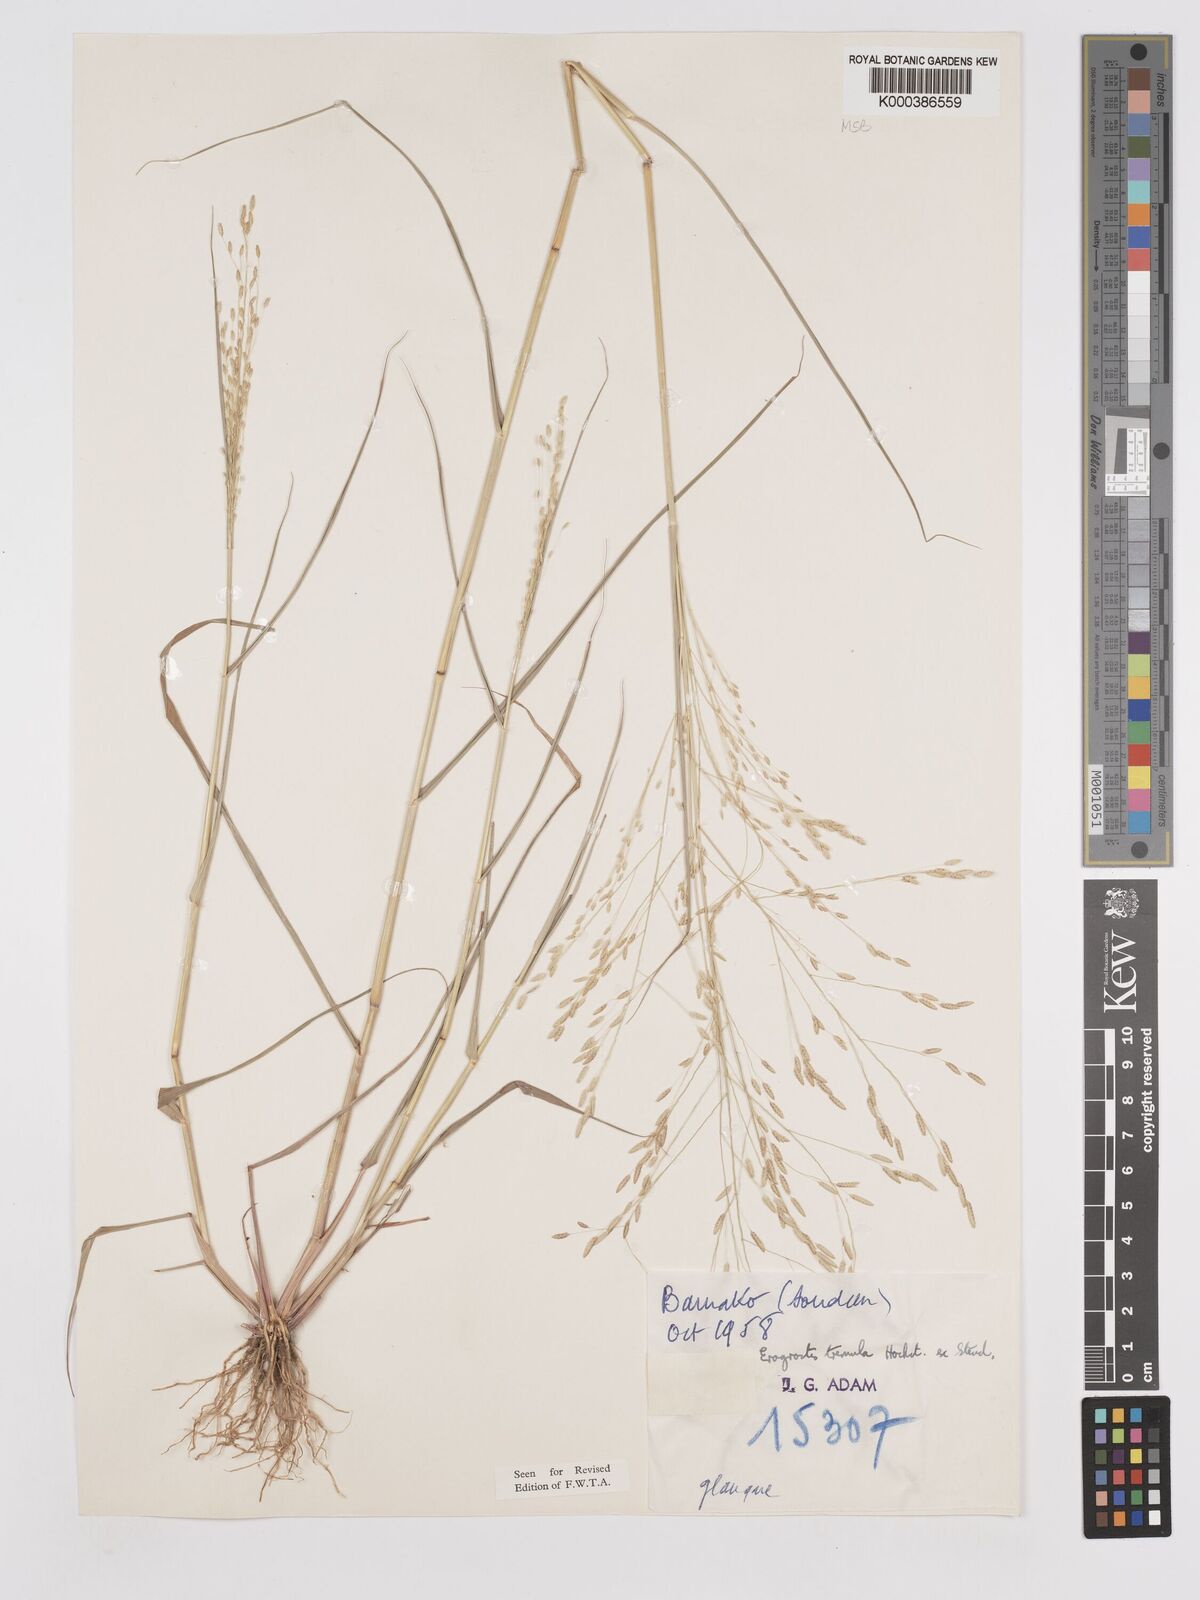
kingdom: Plantae
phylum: Tracheophyta
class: Liliopsida
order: Poales
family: Poaceae
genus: Eragrostis
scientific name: Eragrostis tremula
